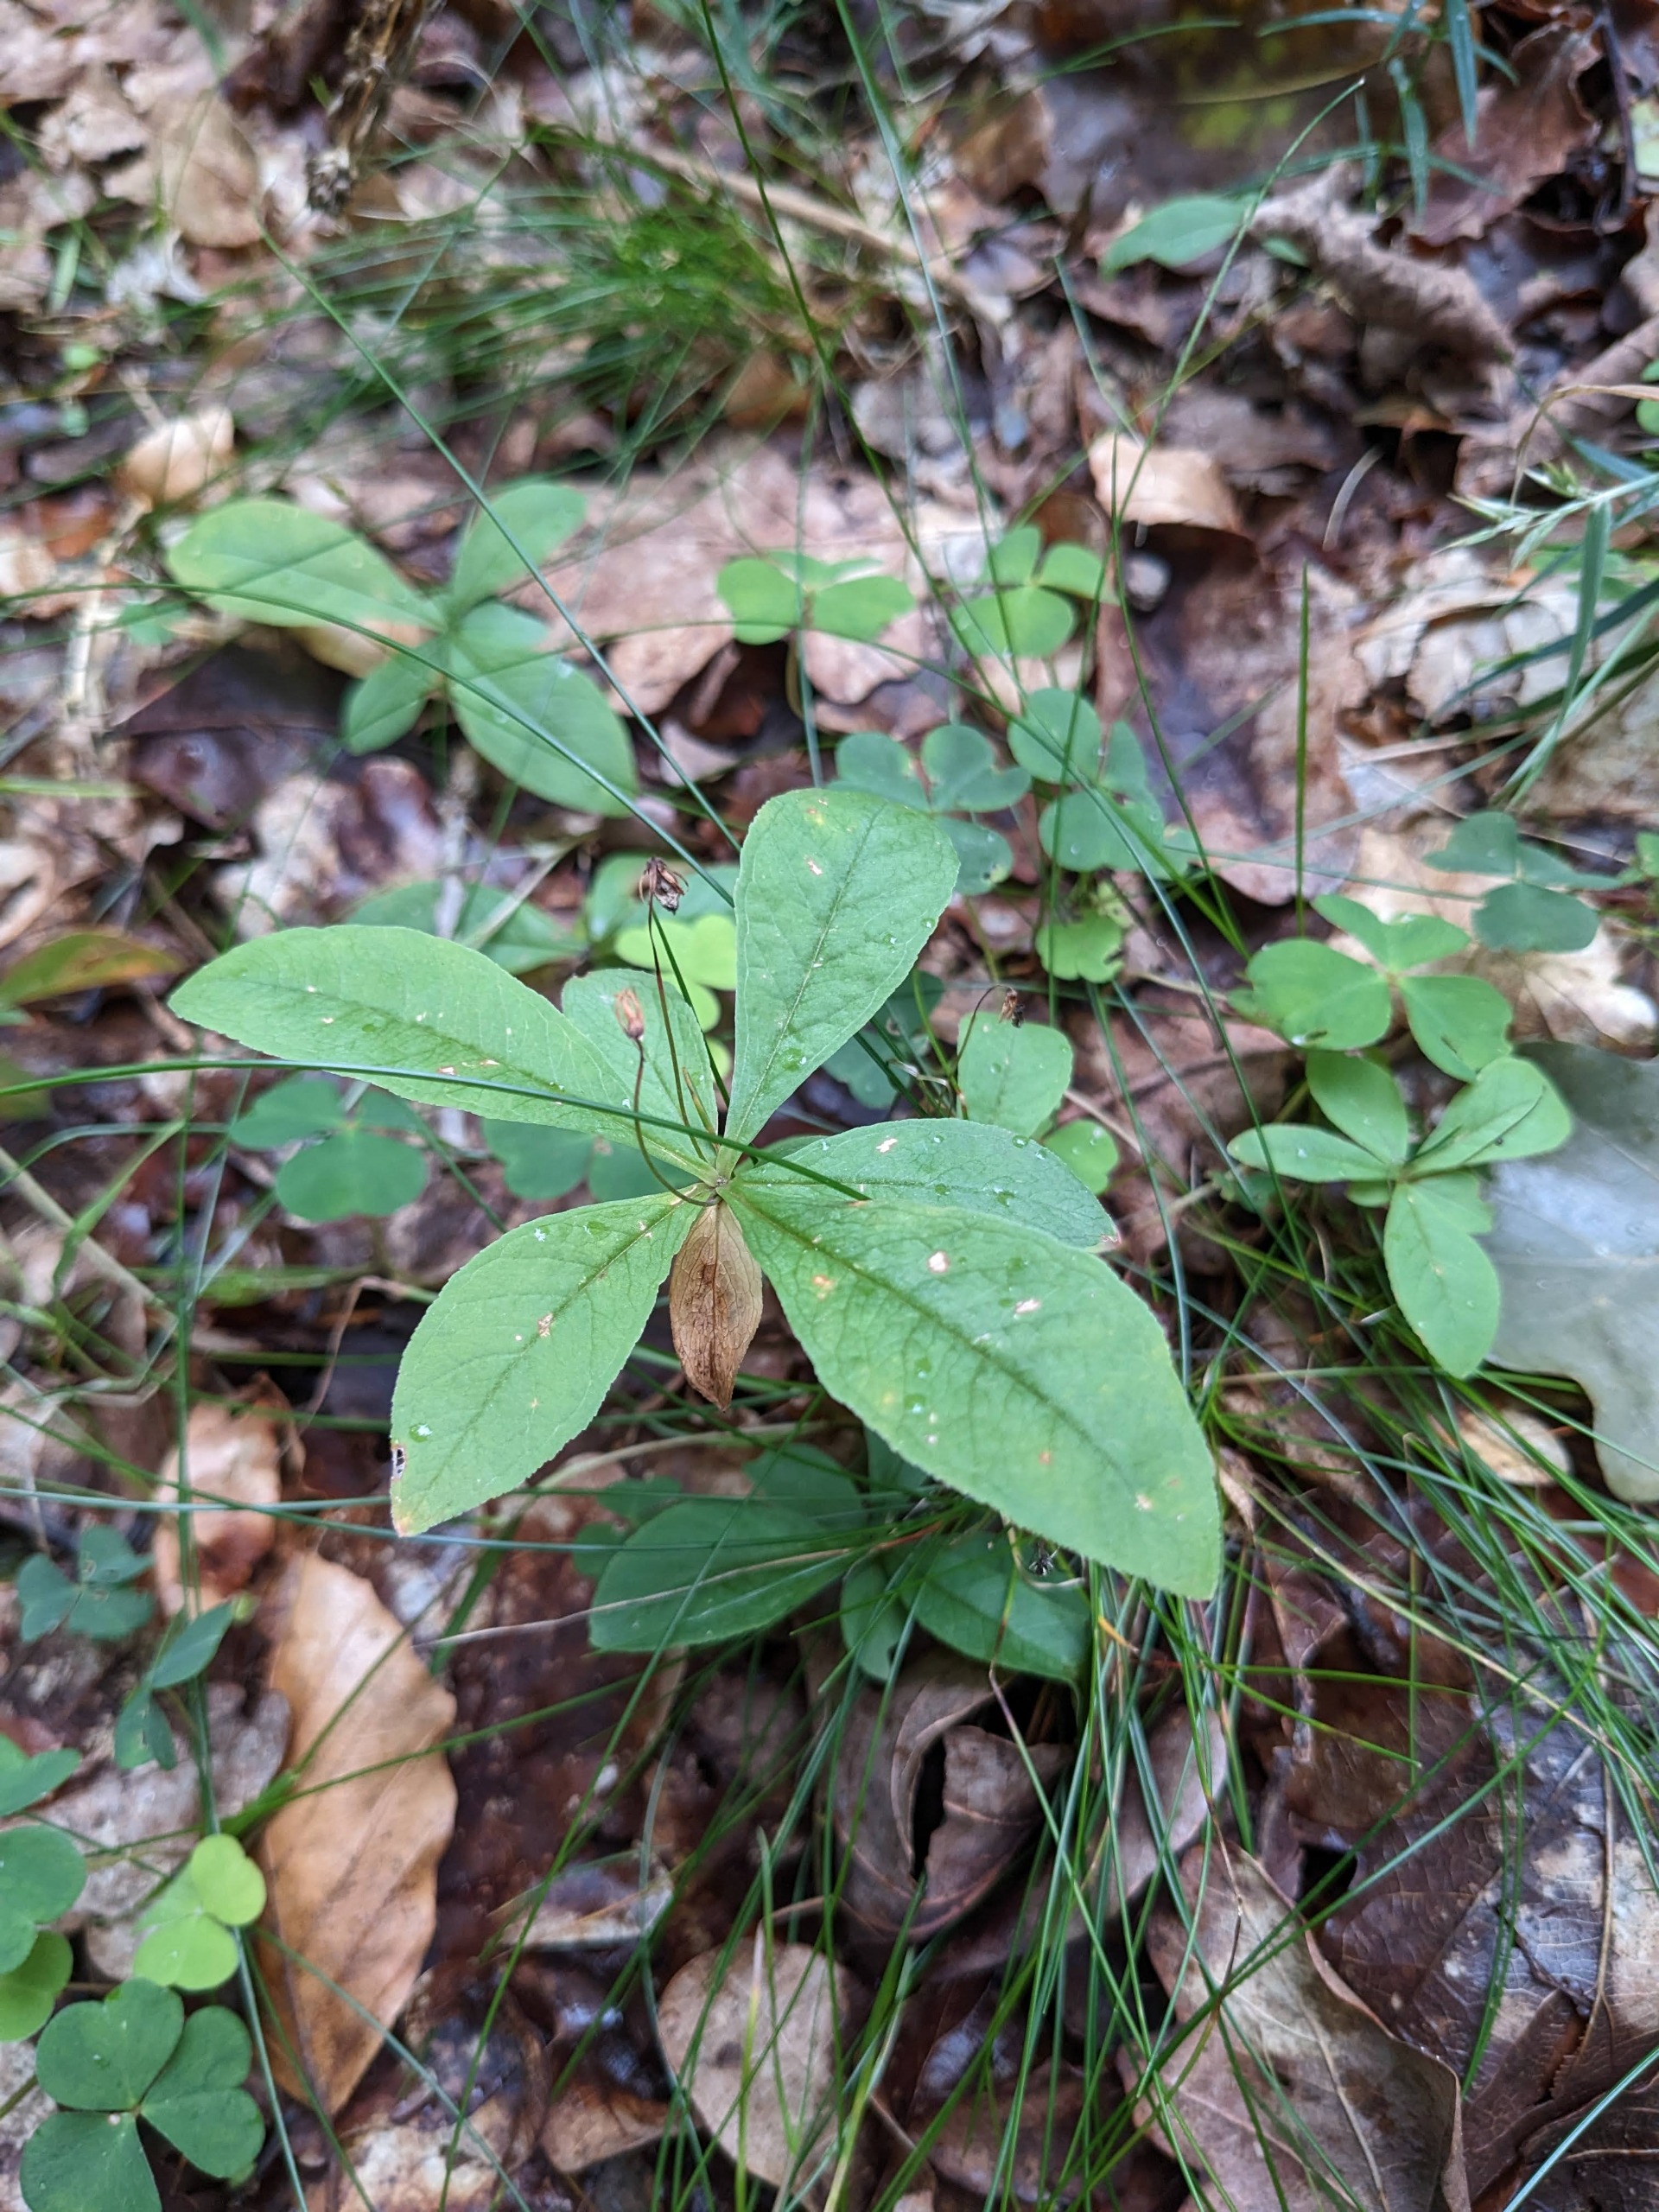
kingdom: Plantae
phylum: Tracheophyta
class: Magnoliopsida
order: Ericales
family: Primulaceae
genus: Lysimachia
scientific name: Lysimachia europaea
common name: Skovstjerne
